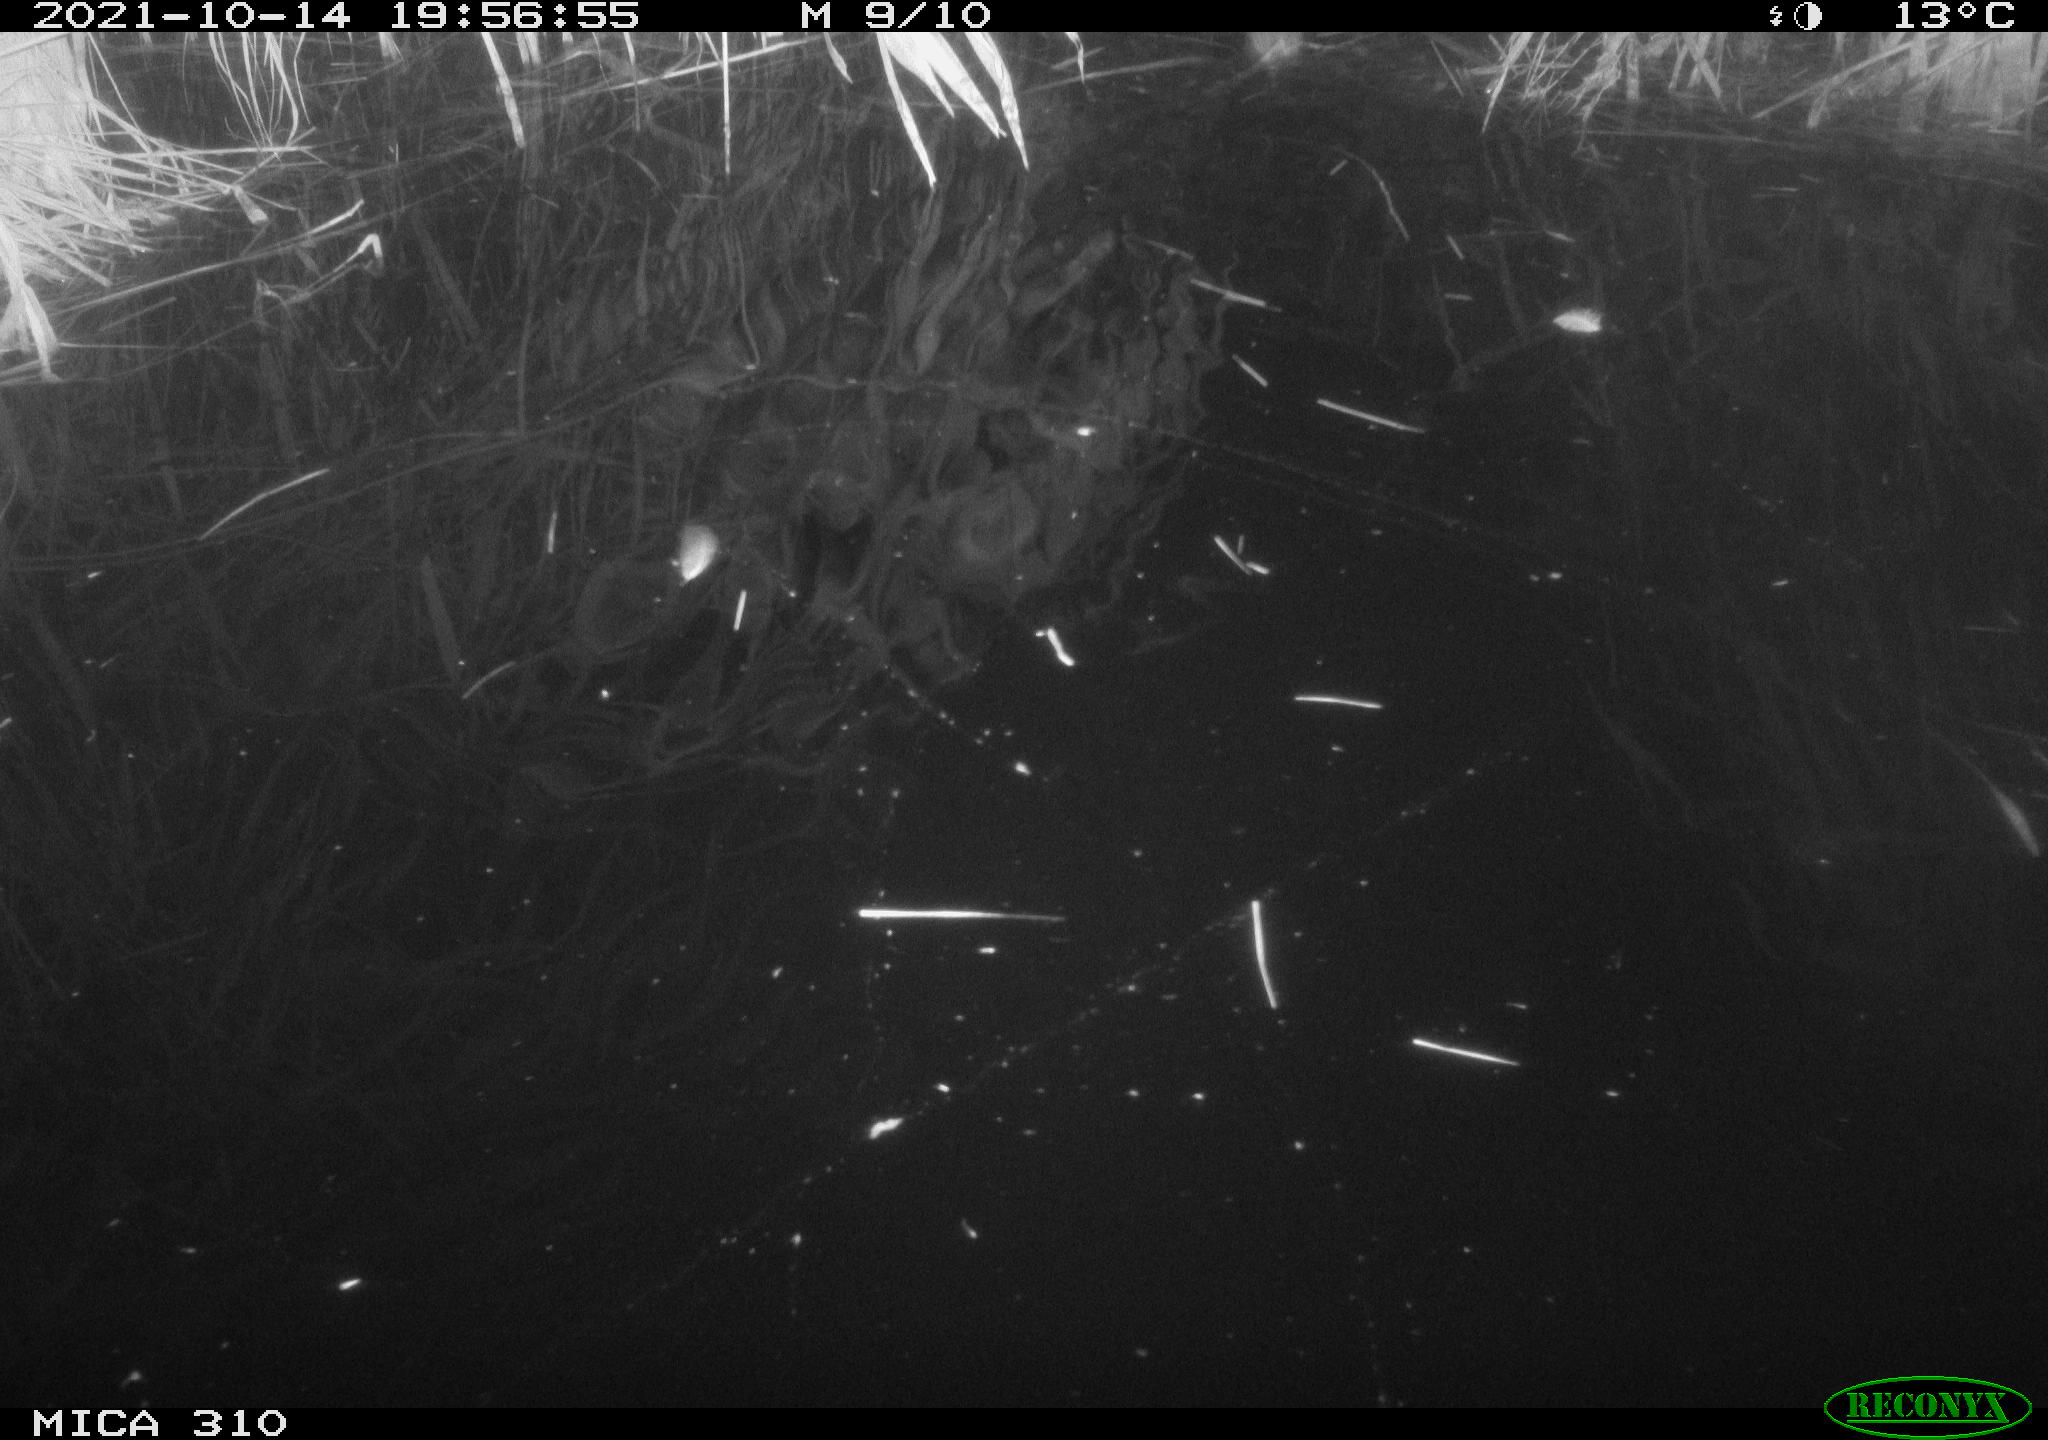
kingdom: Animalia
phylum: Chordata
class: Mammalia
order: Rodentia
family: Muridae
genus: Rattus
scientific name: Rattus norvegicus
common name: Brown rat
